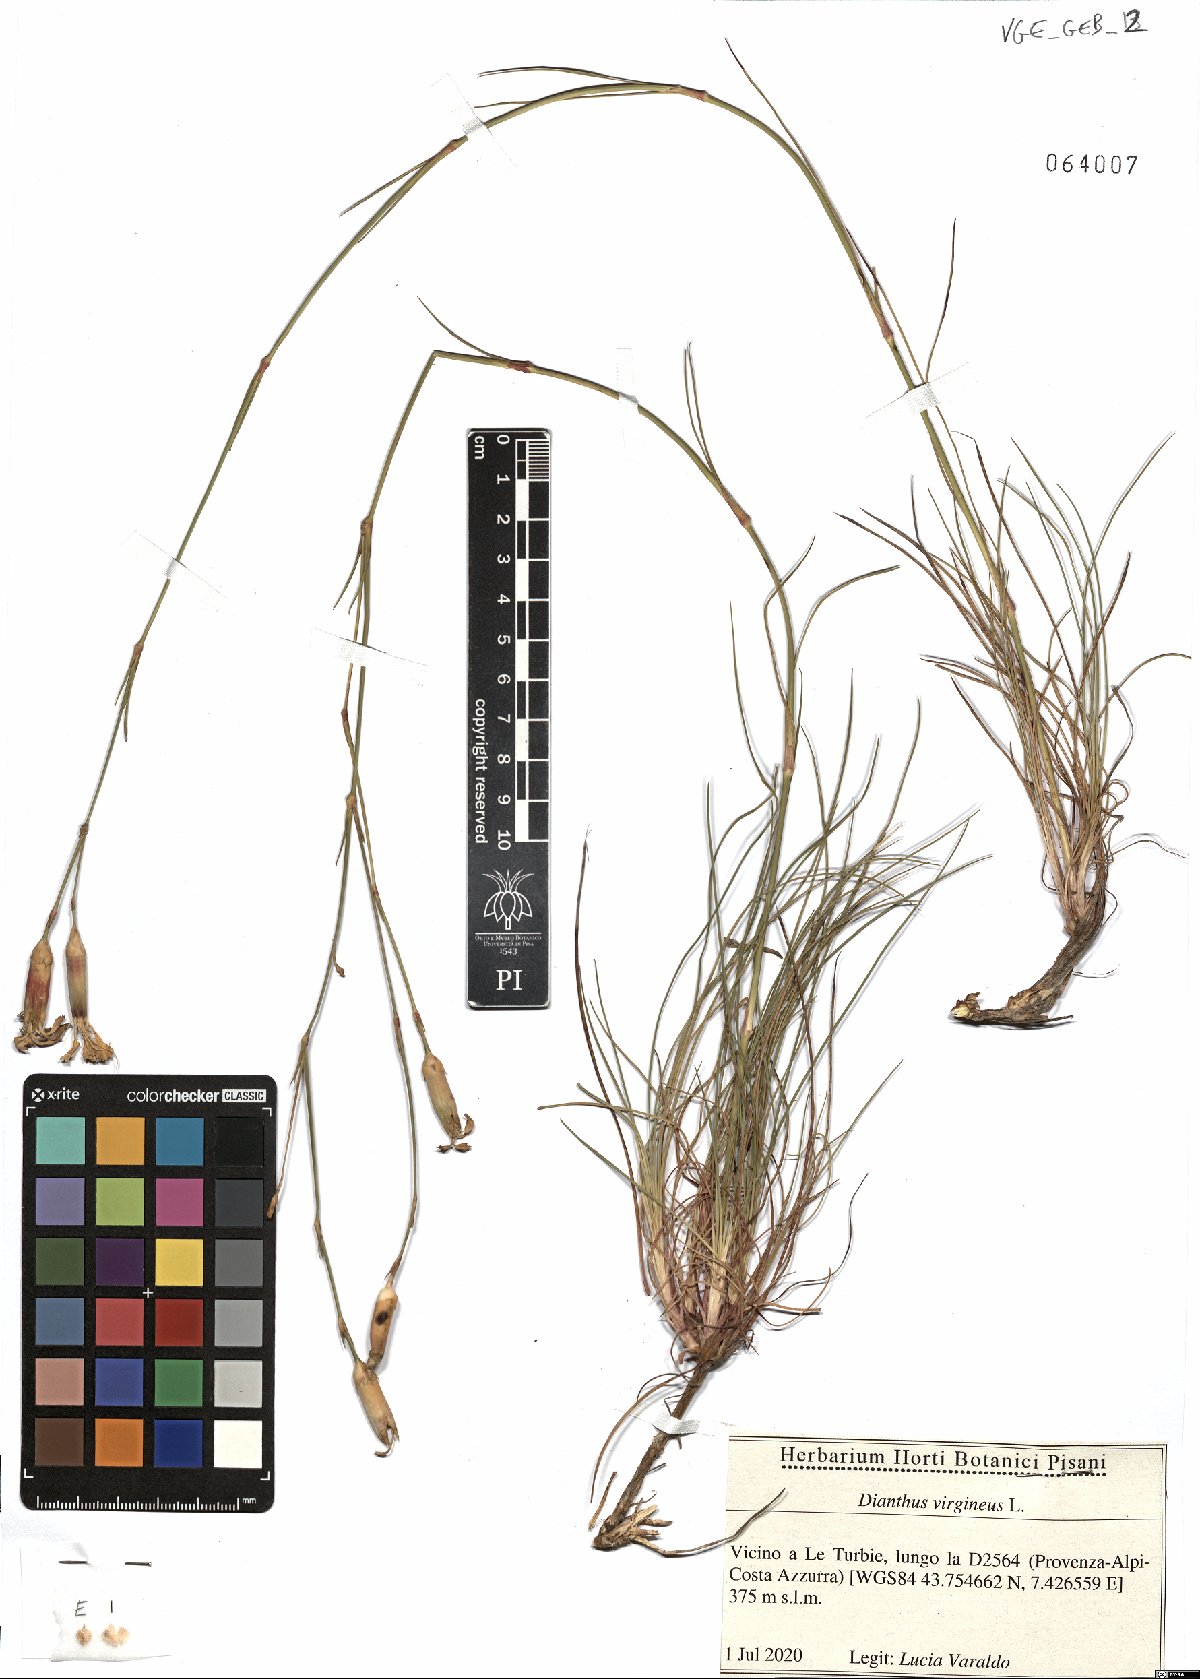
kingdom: Plantae
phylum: Tracheophyta
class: Magnoliopsida
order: Caryophyllales
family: Caryophyllaceae
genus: Dianthus
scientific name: Dianthus virgineus
